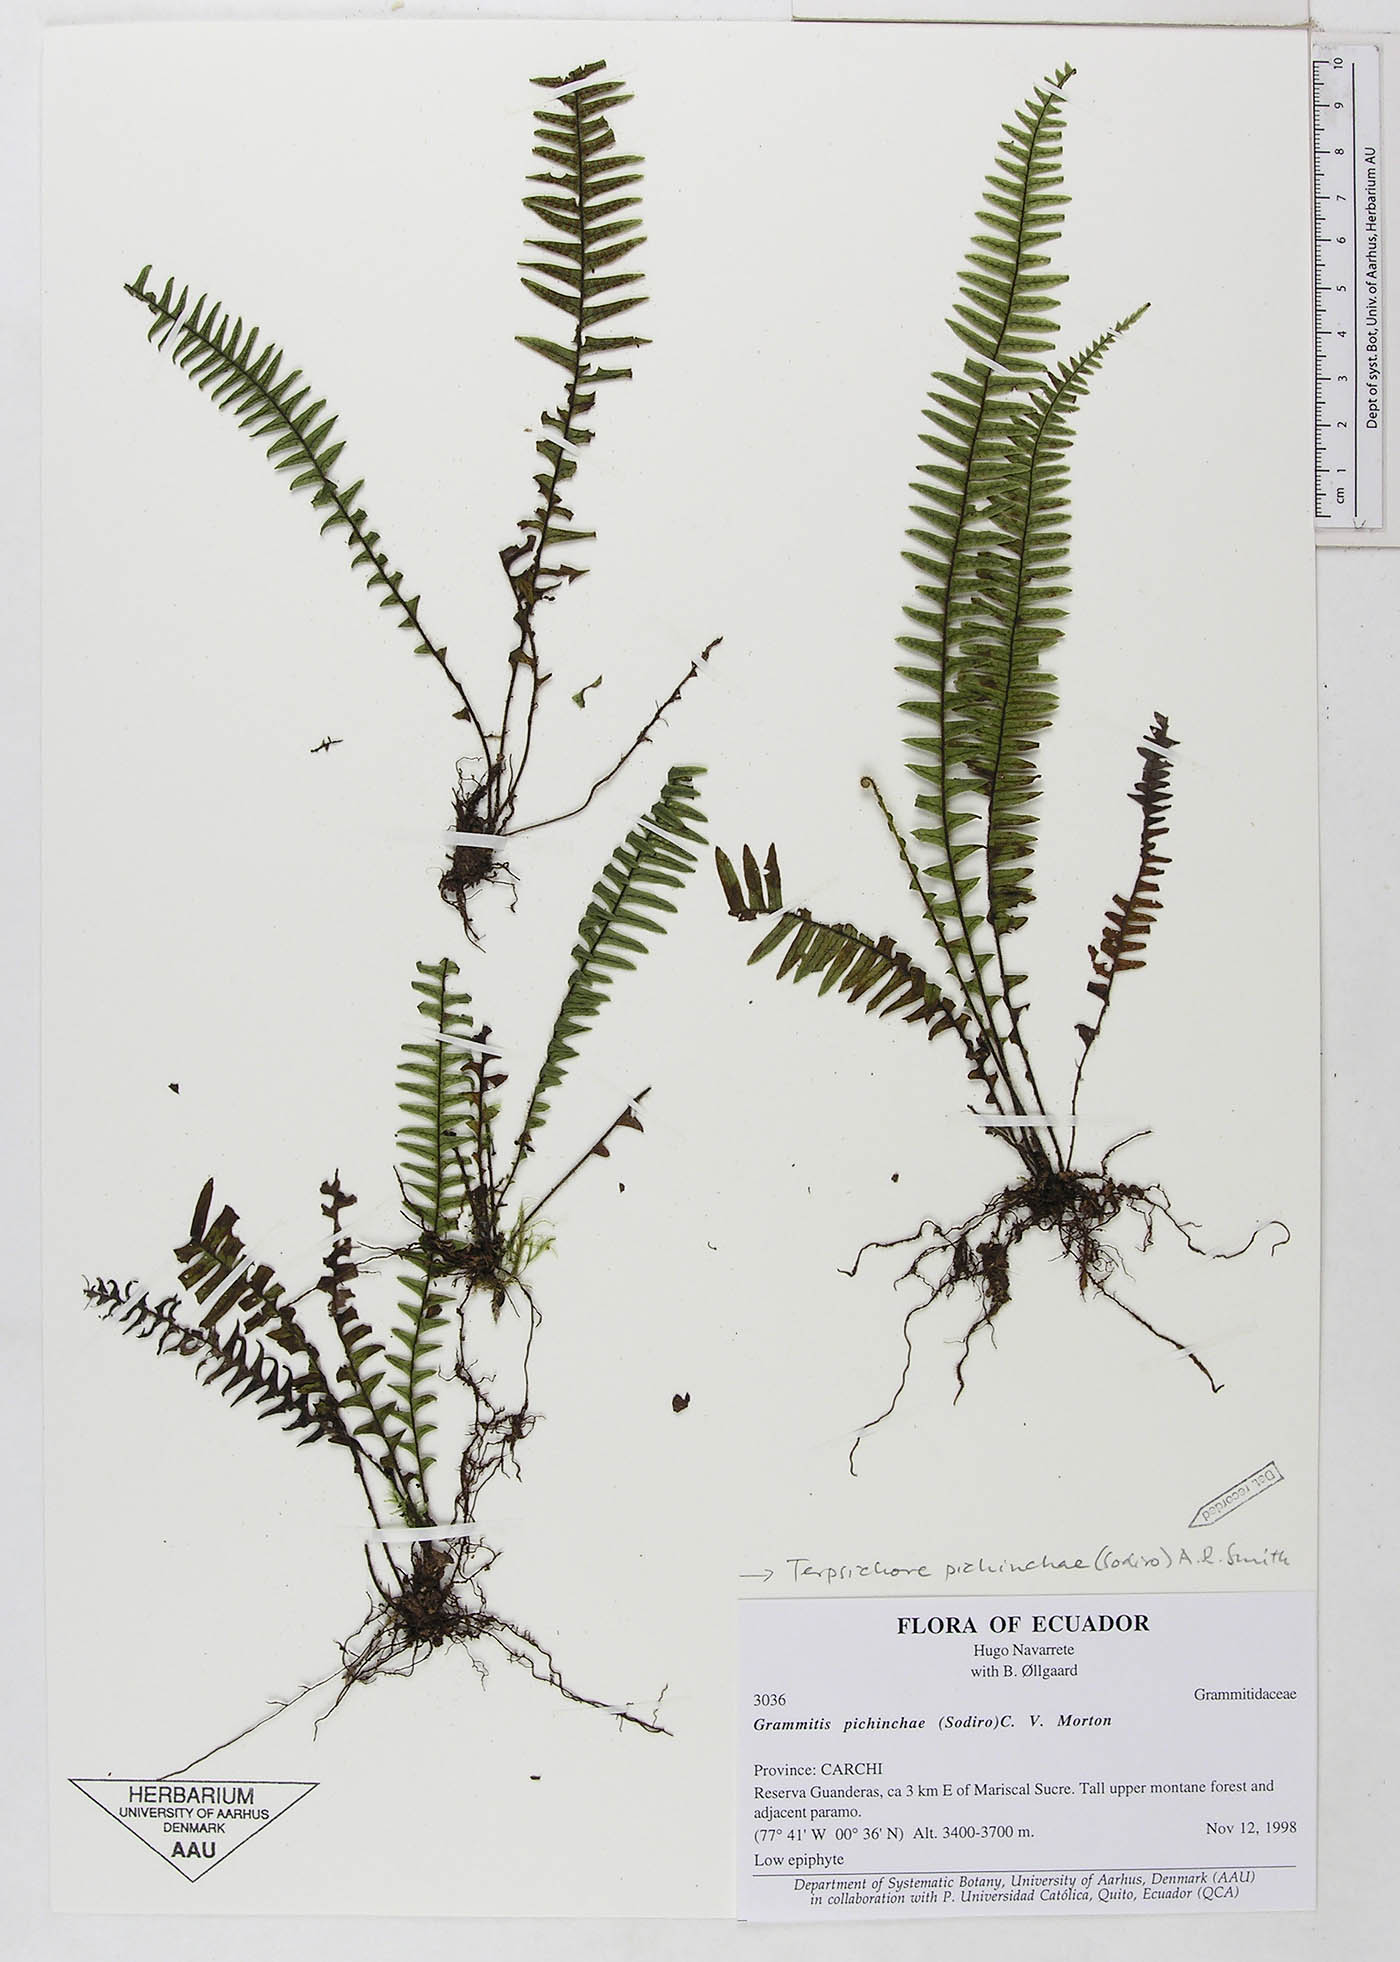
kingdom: Plantae
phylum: Tracheophyta
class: Polypodiopsida
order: Polypodiales
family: Polypodiaceae
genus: Ascogrammitis
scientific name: Ascogrammitis pichinchae
